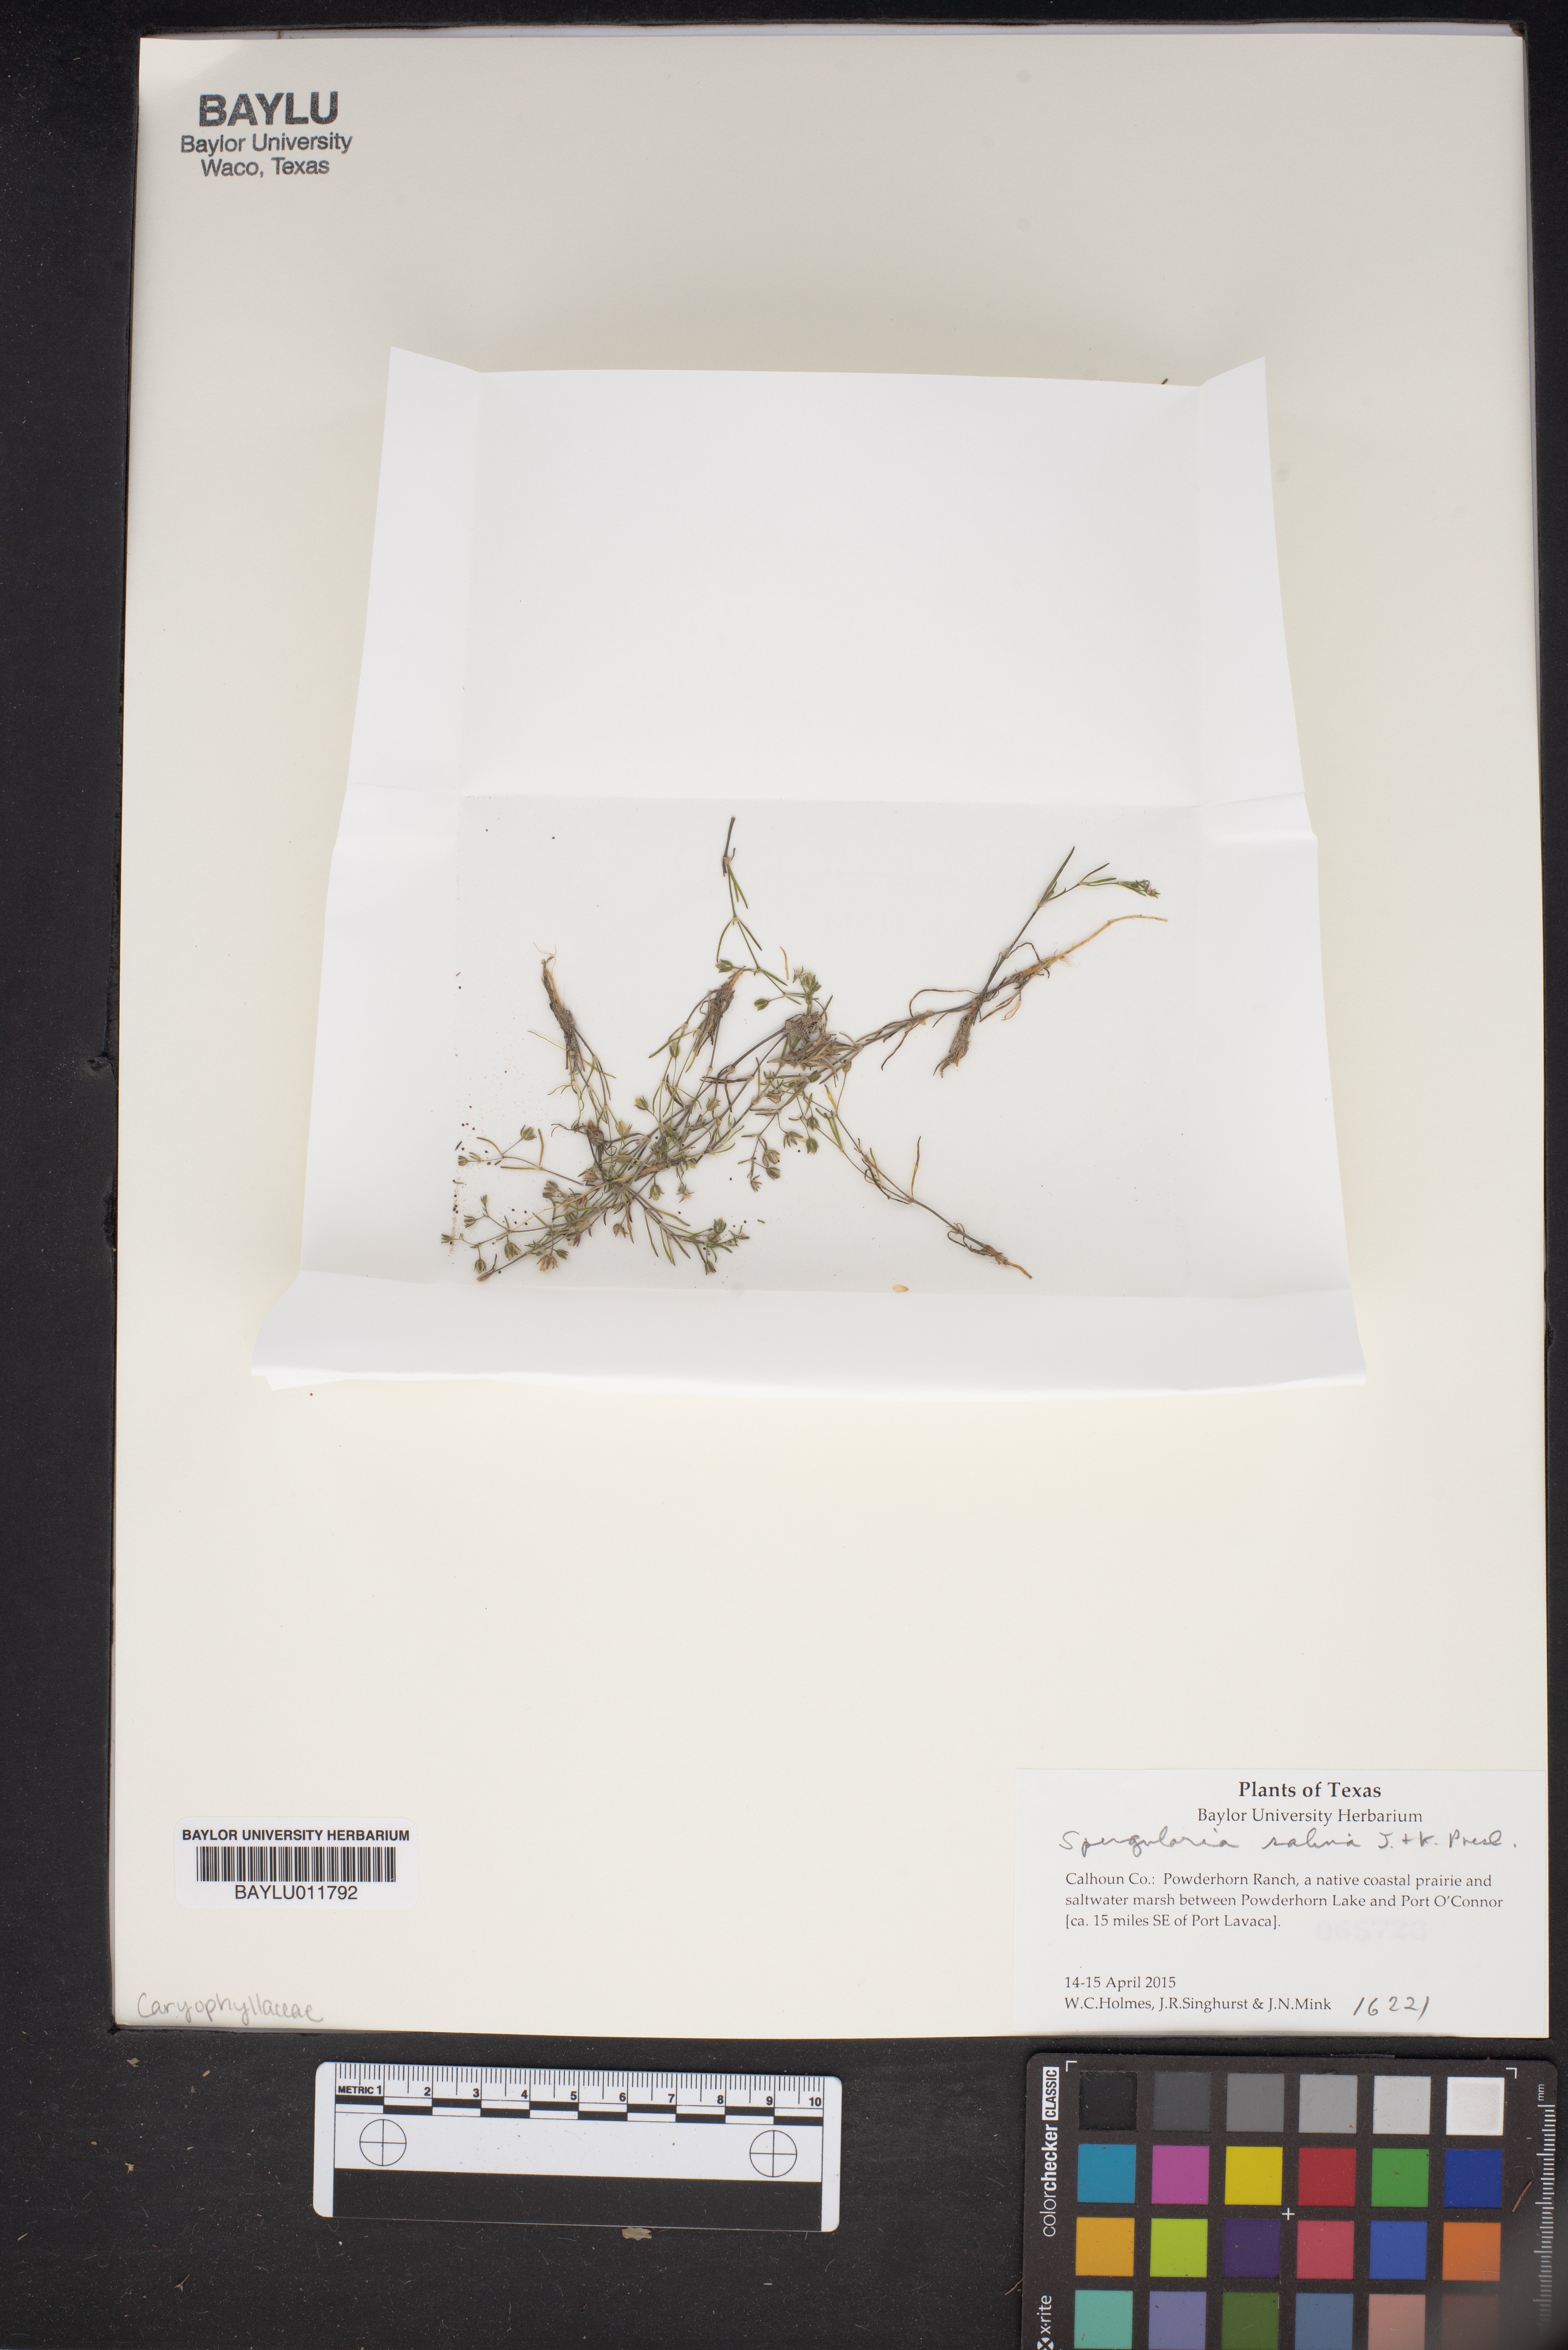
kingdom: Plantae
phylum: Tracheophyta
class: Magnoliopsida
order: Caryophyllales
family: Caryophyllaceae
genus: Spergularia
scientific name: Spergularia marina
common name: Lesser sea-spurrey
